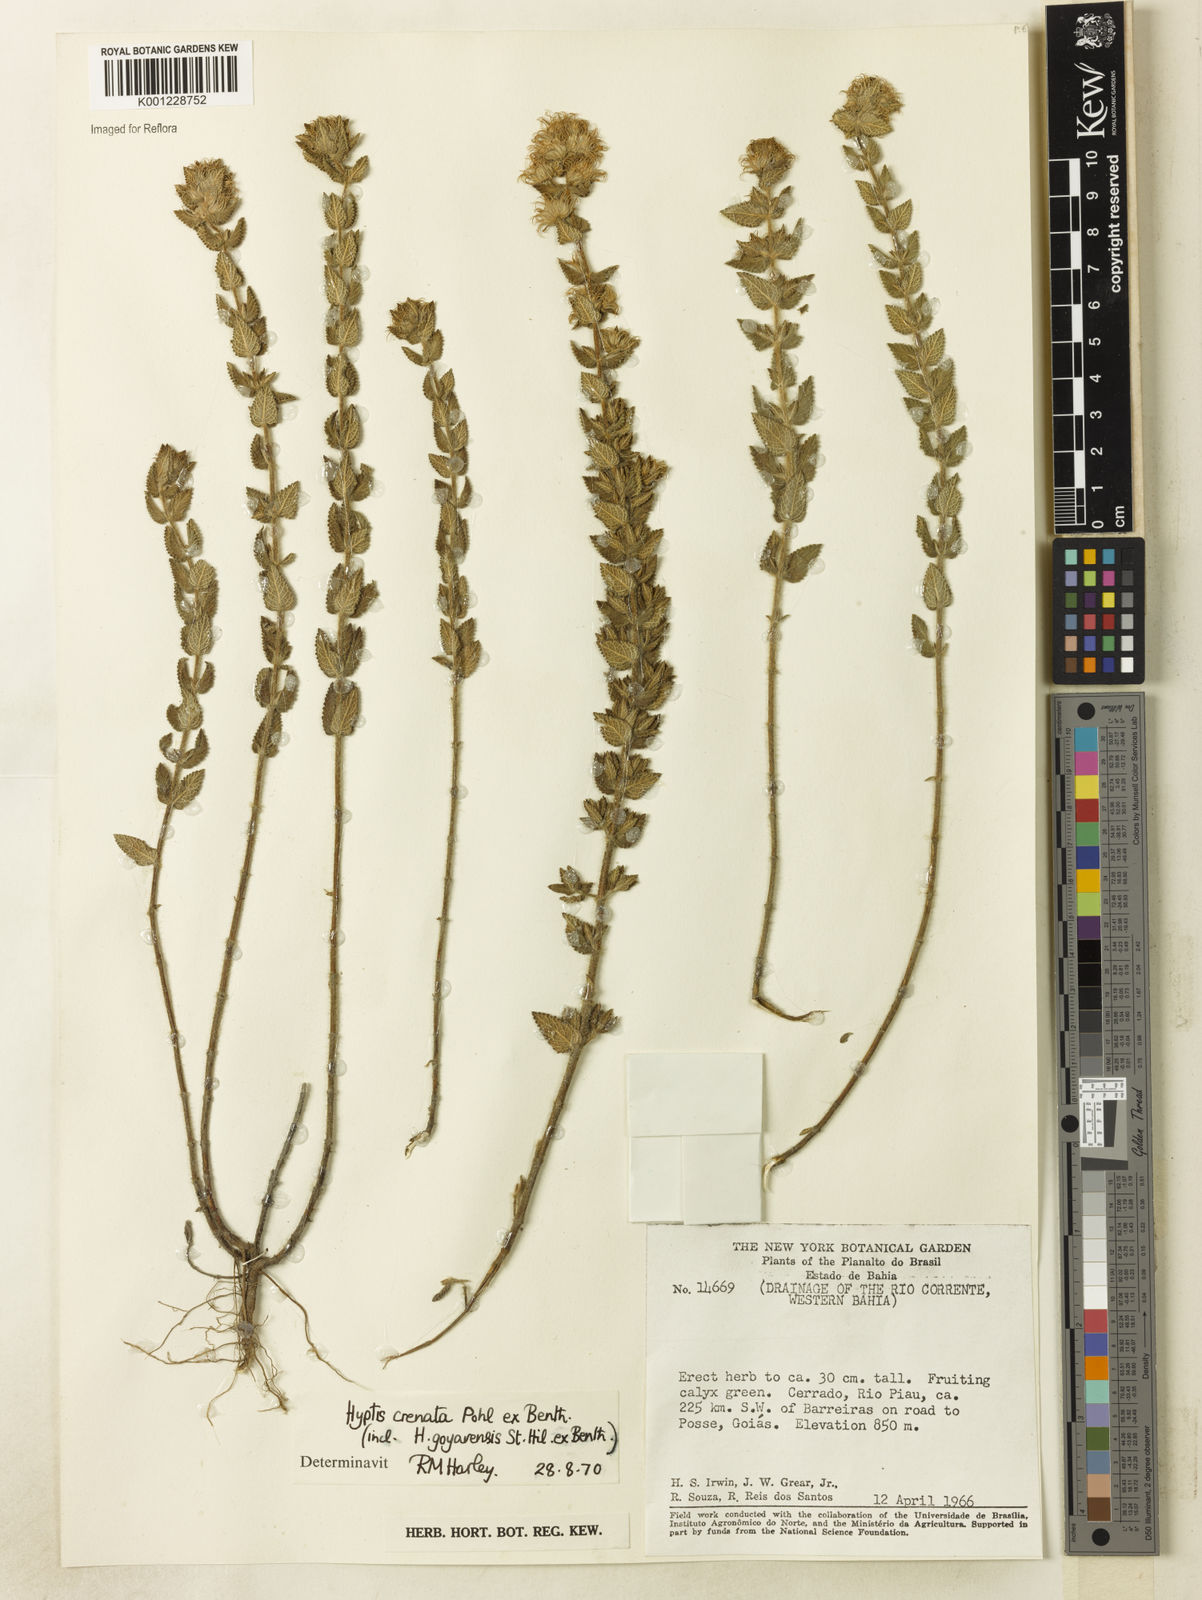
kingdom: Plantae
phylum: Tracheophyta
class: Magnoliopsida
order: Lamiales
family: Lamiaceae
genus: Hyptis
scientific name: Hyptis crenata
